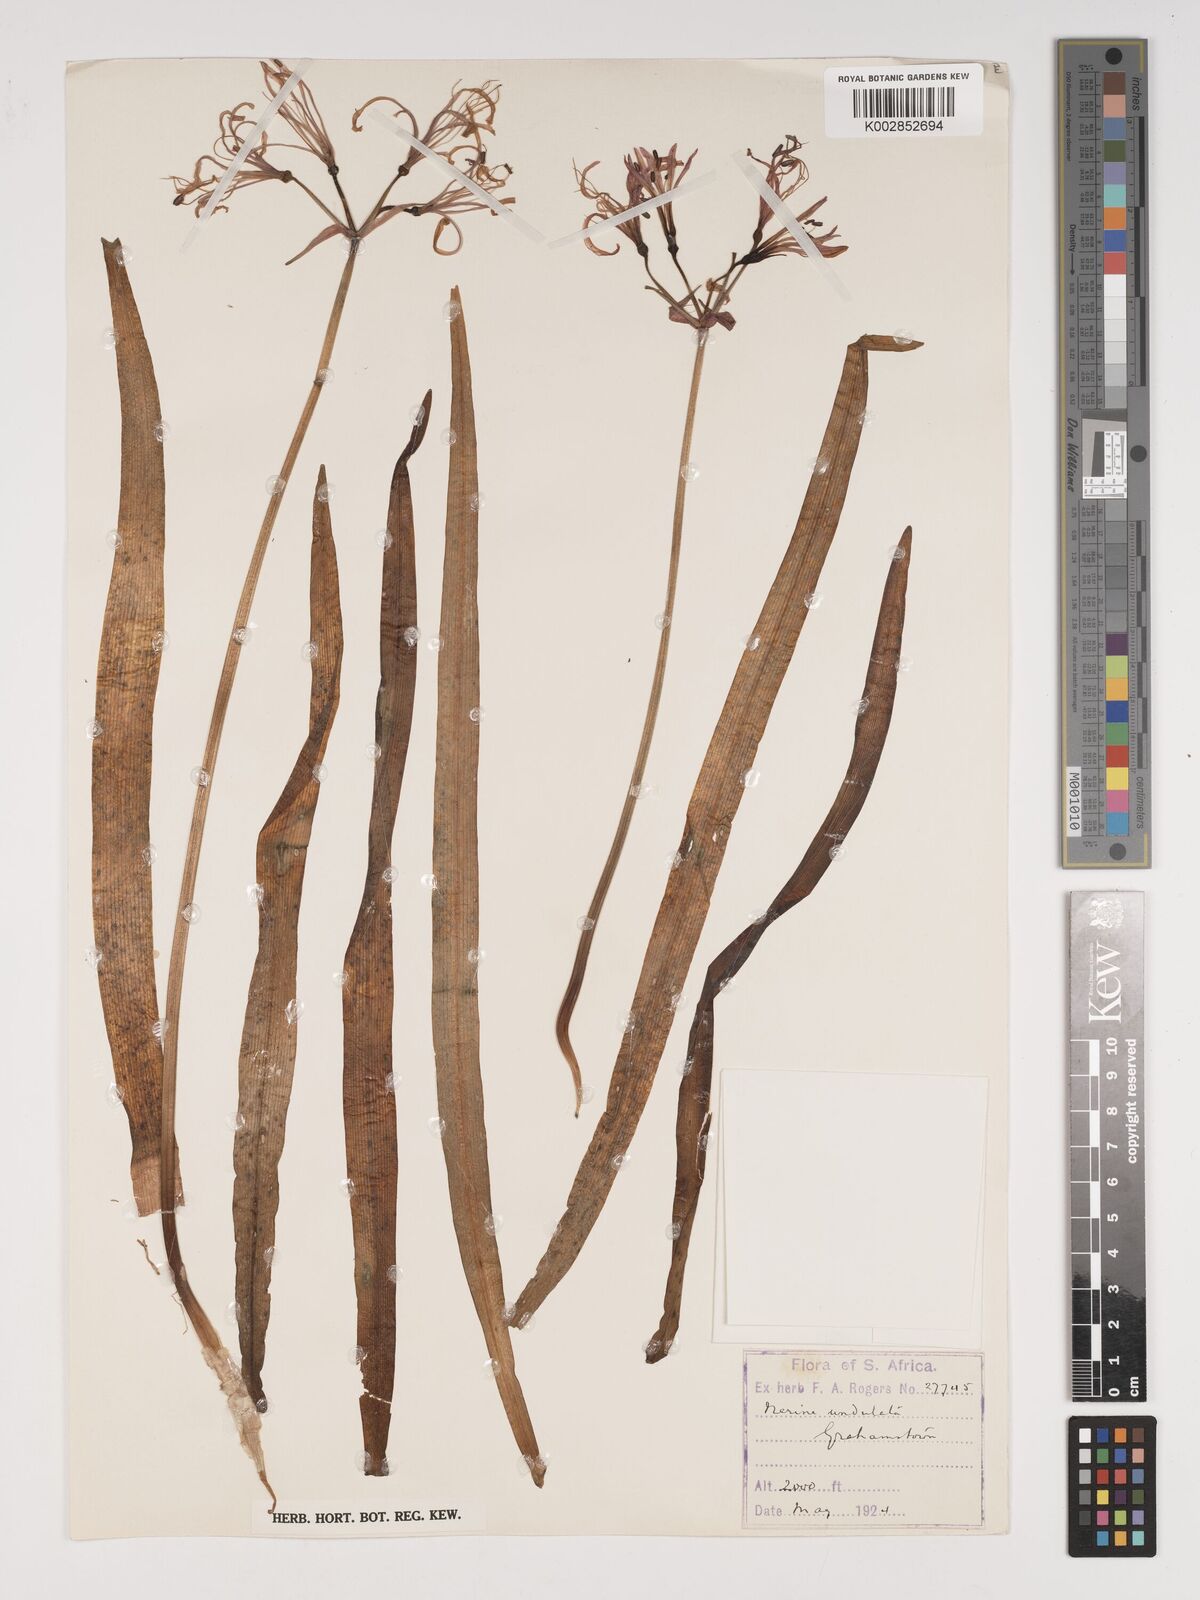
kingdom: Plantae
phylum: Tracheophyta
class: Liliopsida
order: Asparagales
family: Amaryllidaceae
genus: Nerine
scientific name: Nerine undulata
